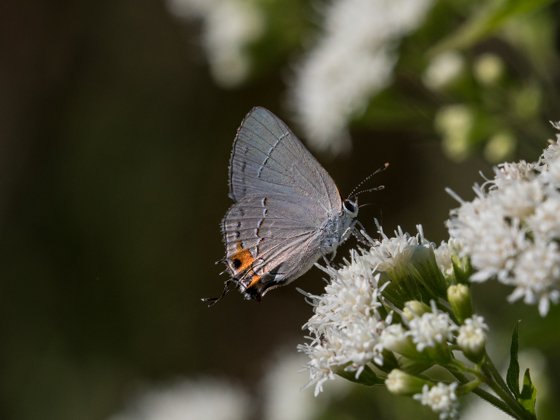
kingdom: Animalia
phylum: Arthropoda
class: Insecta
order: Lepidoptera
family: Lycaenidae
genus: Strymon
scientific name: Strymon melinus
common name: Gray Hairstreak
